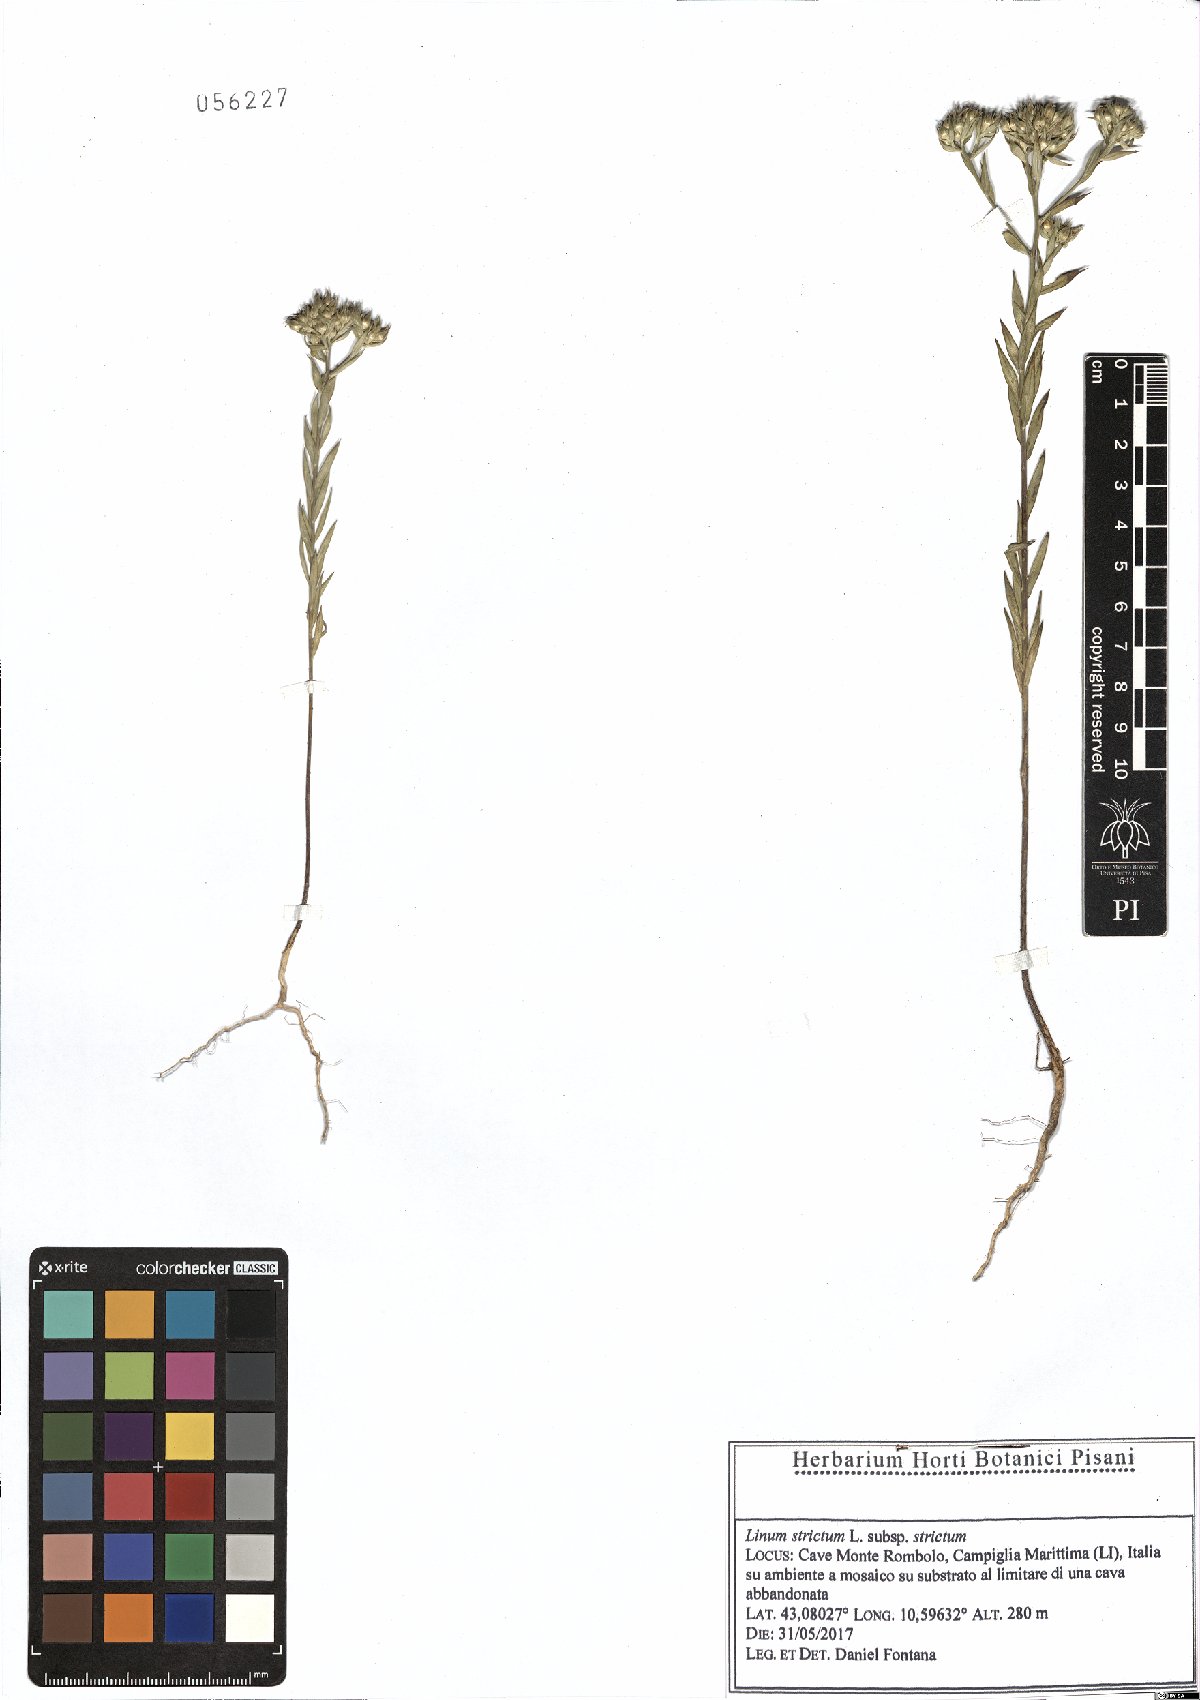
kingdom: Plantae
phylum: Tracheophyta
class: Magnoliopsida
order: Malpighiales
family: Linaceae
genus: Linum
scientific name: Linum strictum
